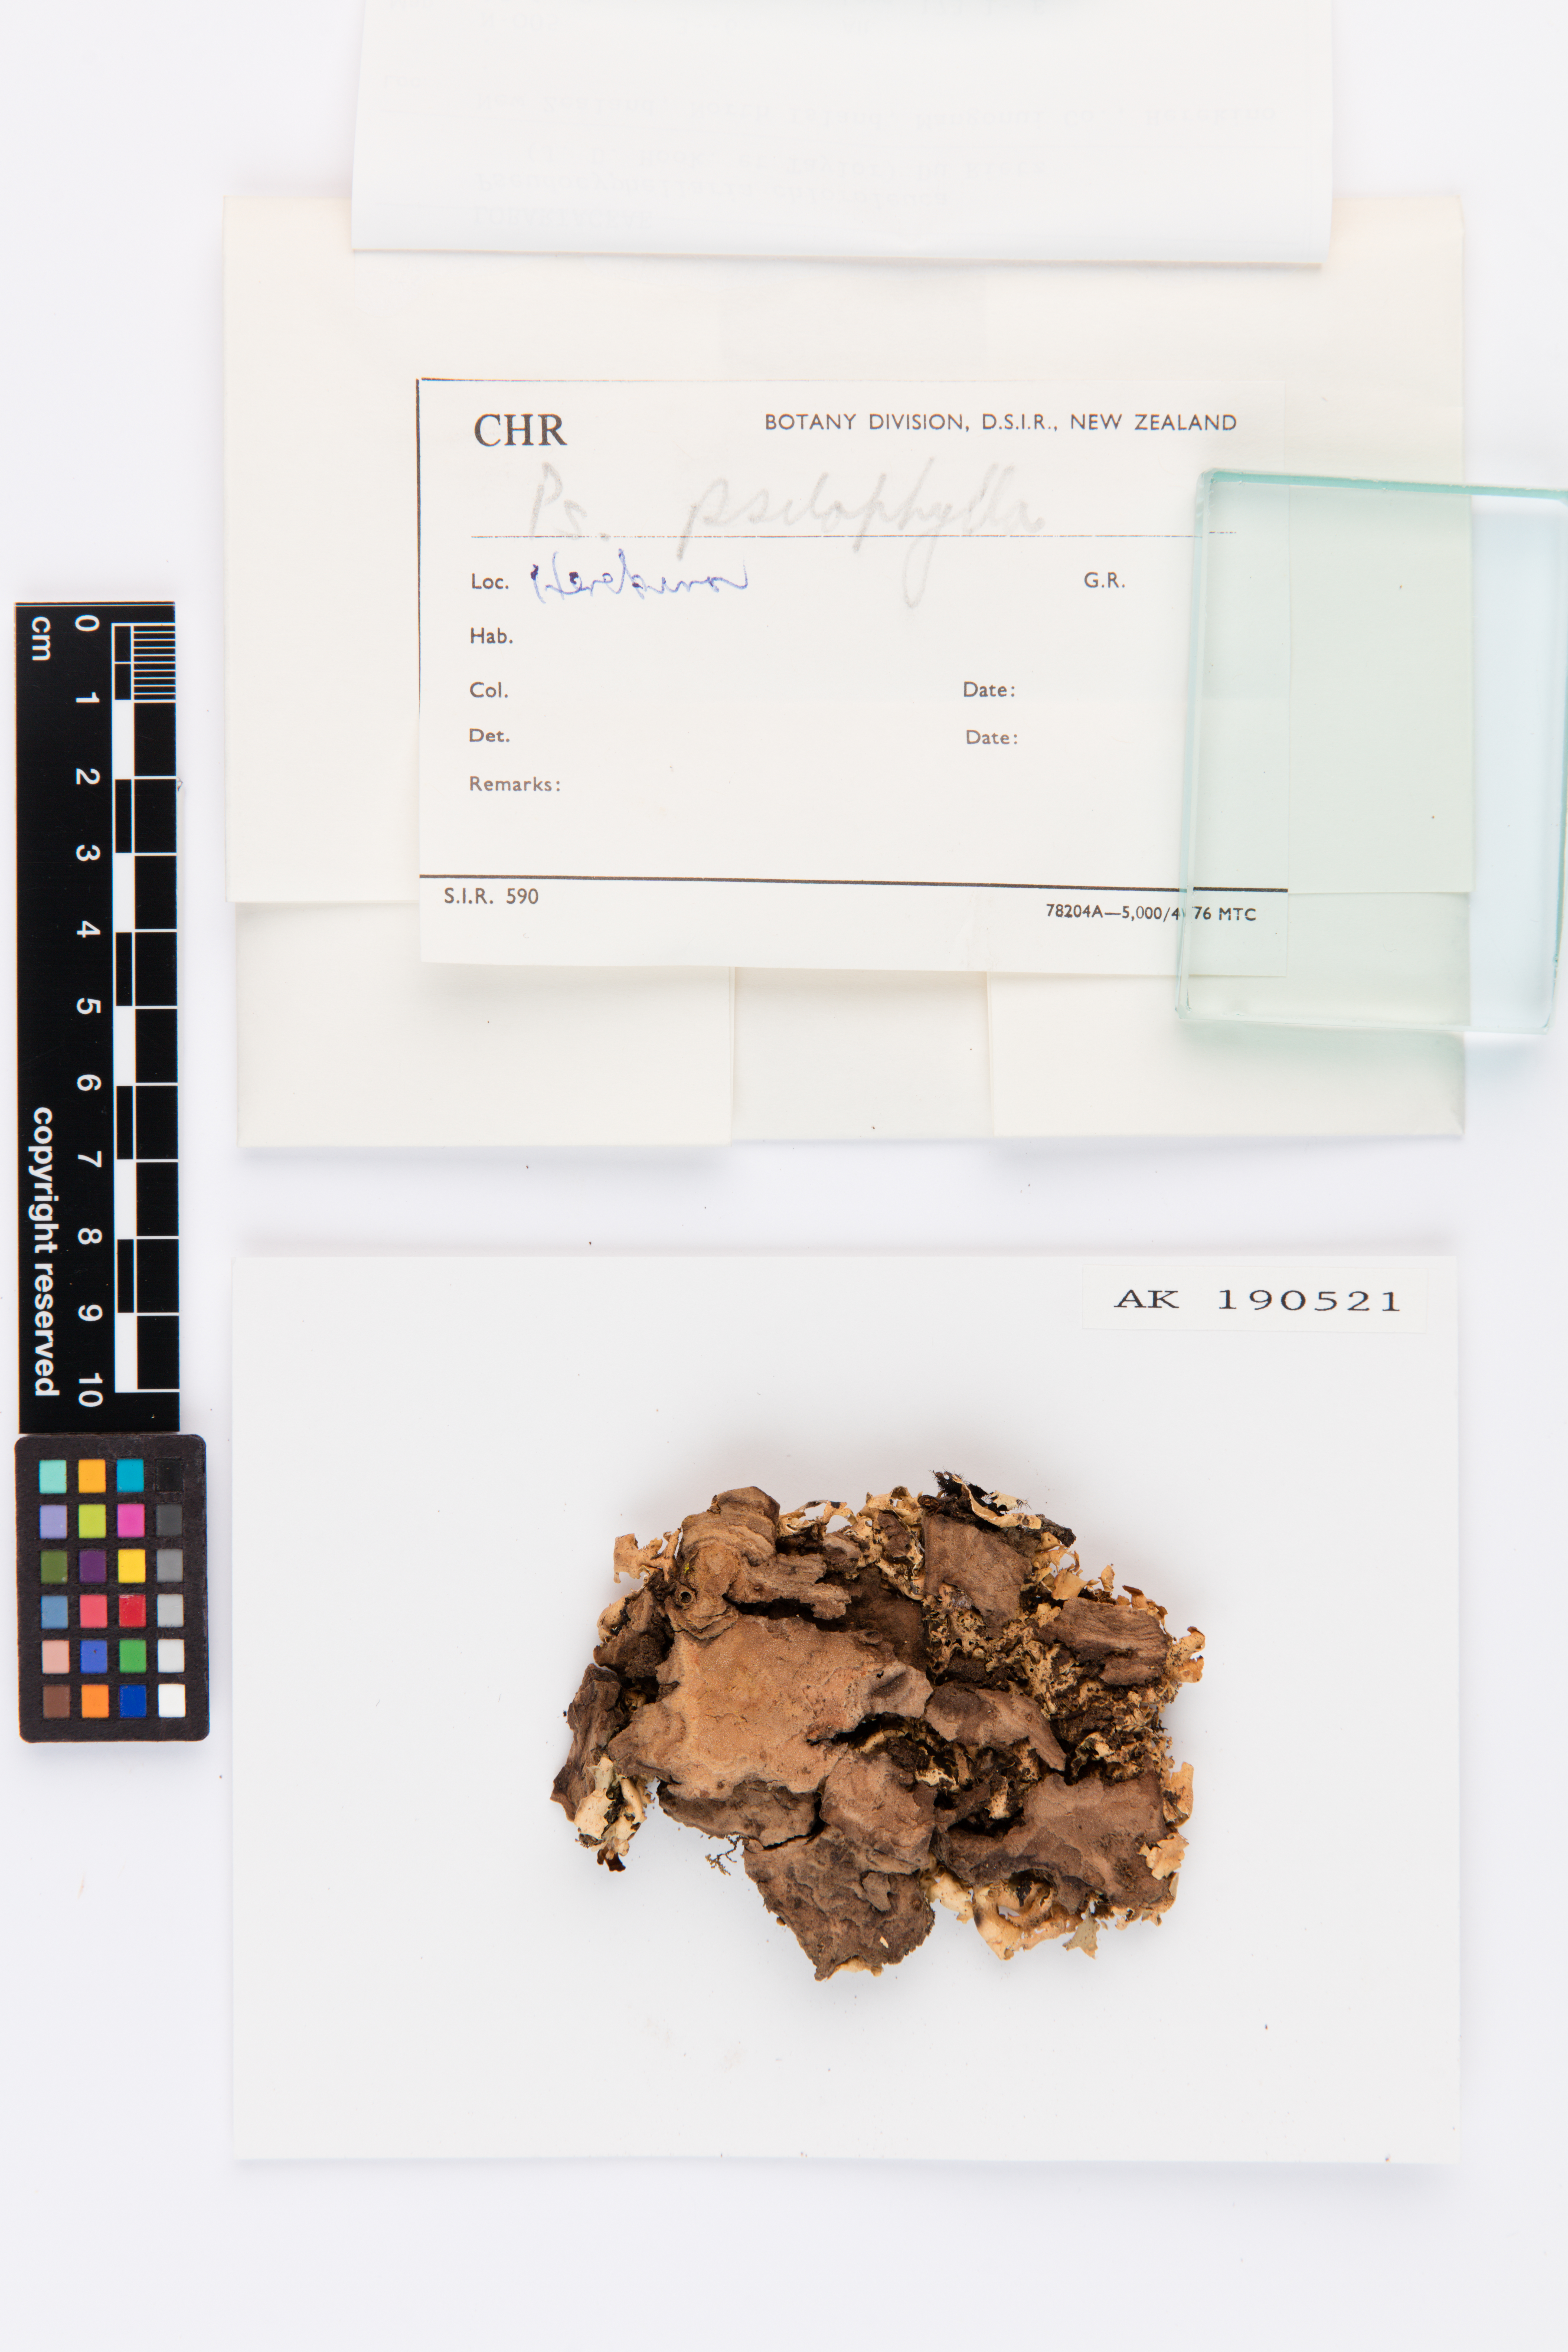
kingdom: Fungi
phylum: Ascomycota
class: Lecanoromycetes
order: Peltigerales
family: Lobariaceae
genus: Pseudocyphellaria
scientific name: Pseudocyphellaria chloroleuca
